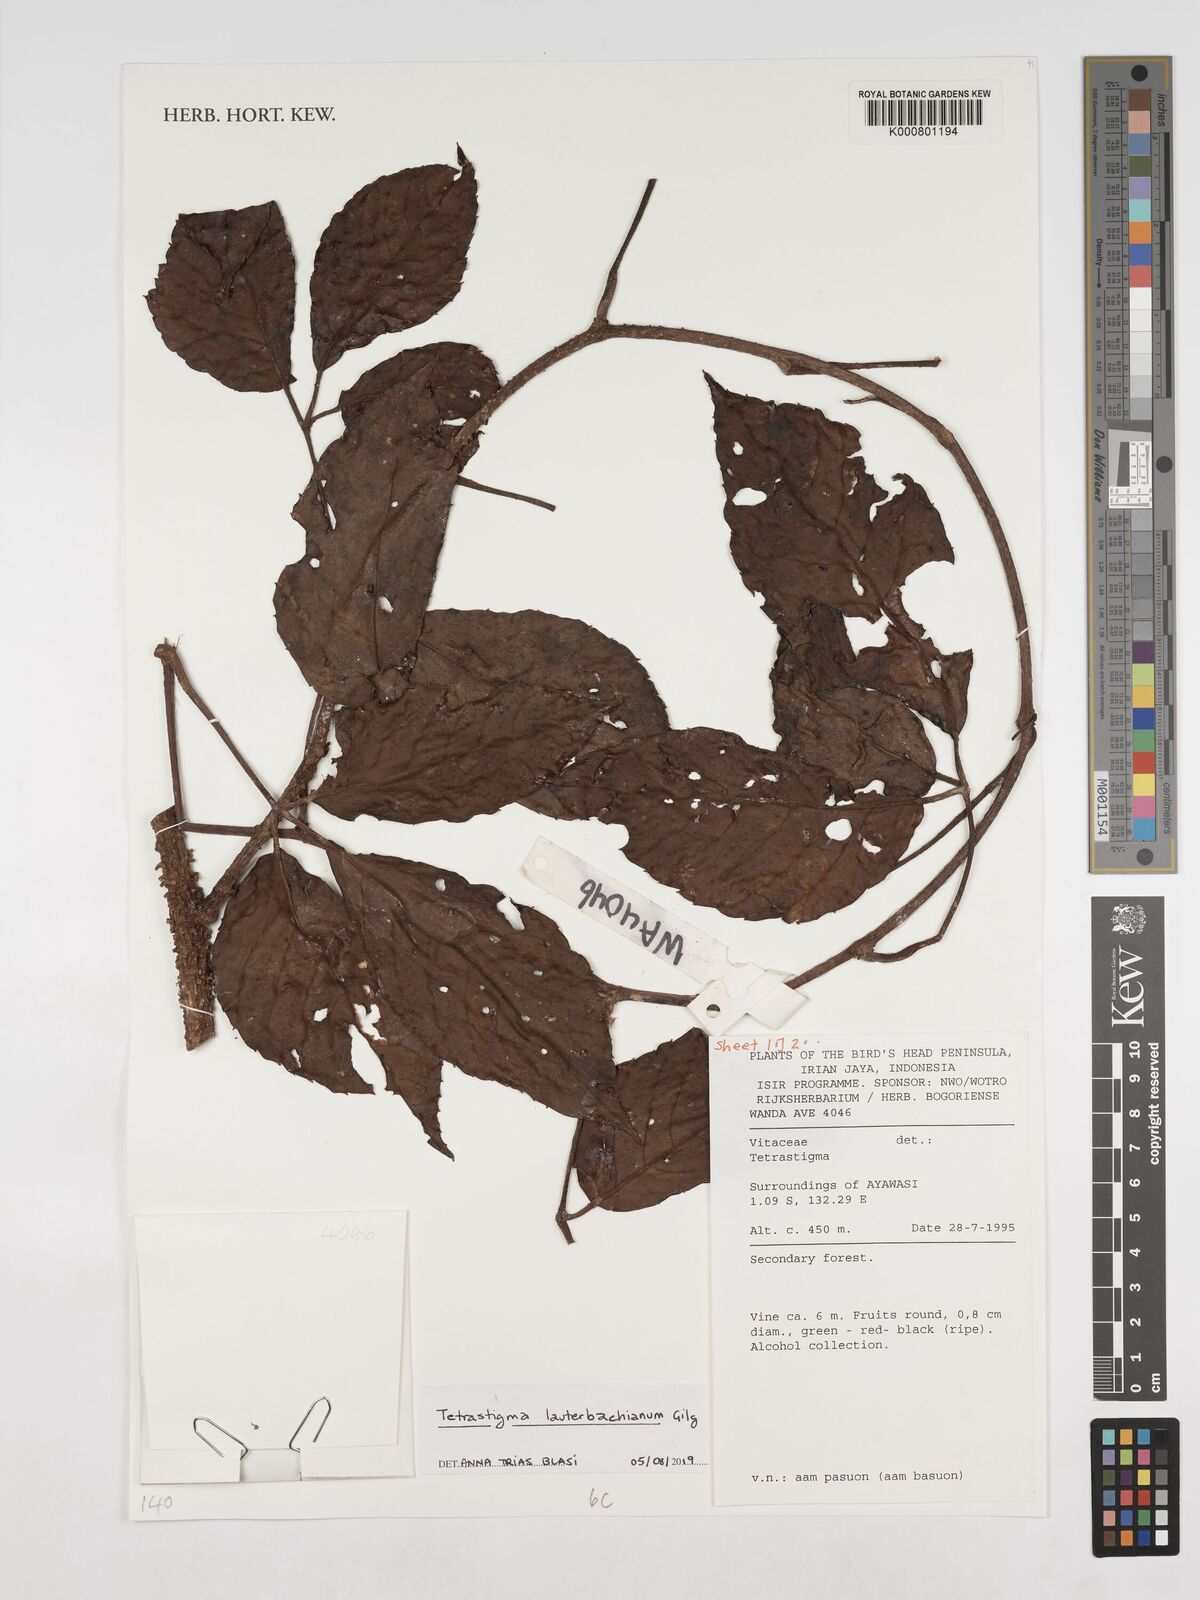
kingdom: Plantae
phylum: Tracheophyta
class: Magnoliopsida
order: Vitales
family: Vitaceae
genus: Tetrastigma
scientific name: Tetrastigma lauterbachianum
